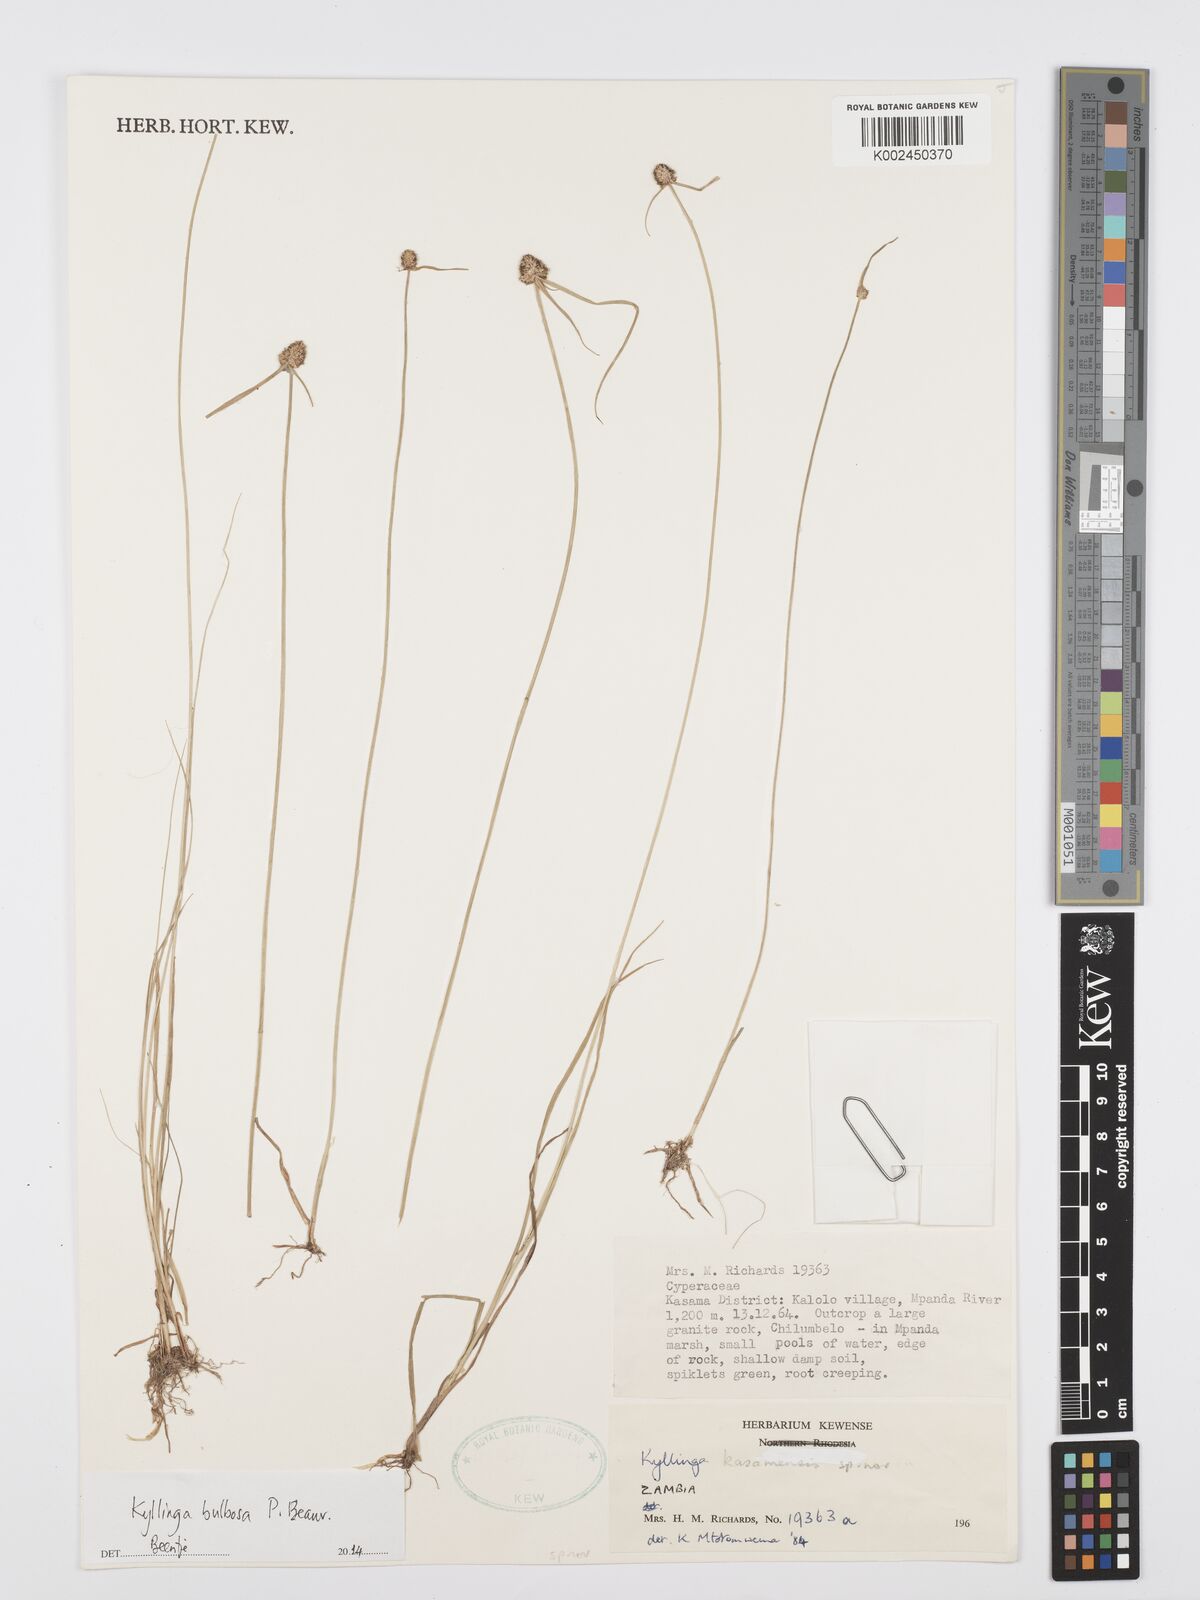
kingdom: Plantae
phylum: Tracheophyta
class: Liliopsida
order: Poales
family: Cyperaceae
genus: Cyperus
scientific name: Cyperus
